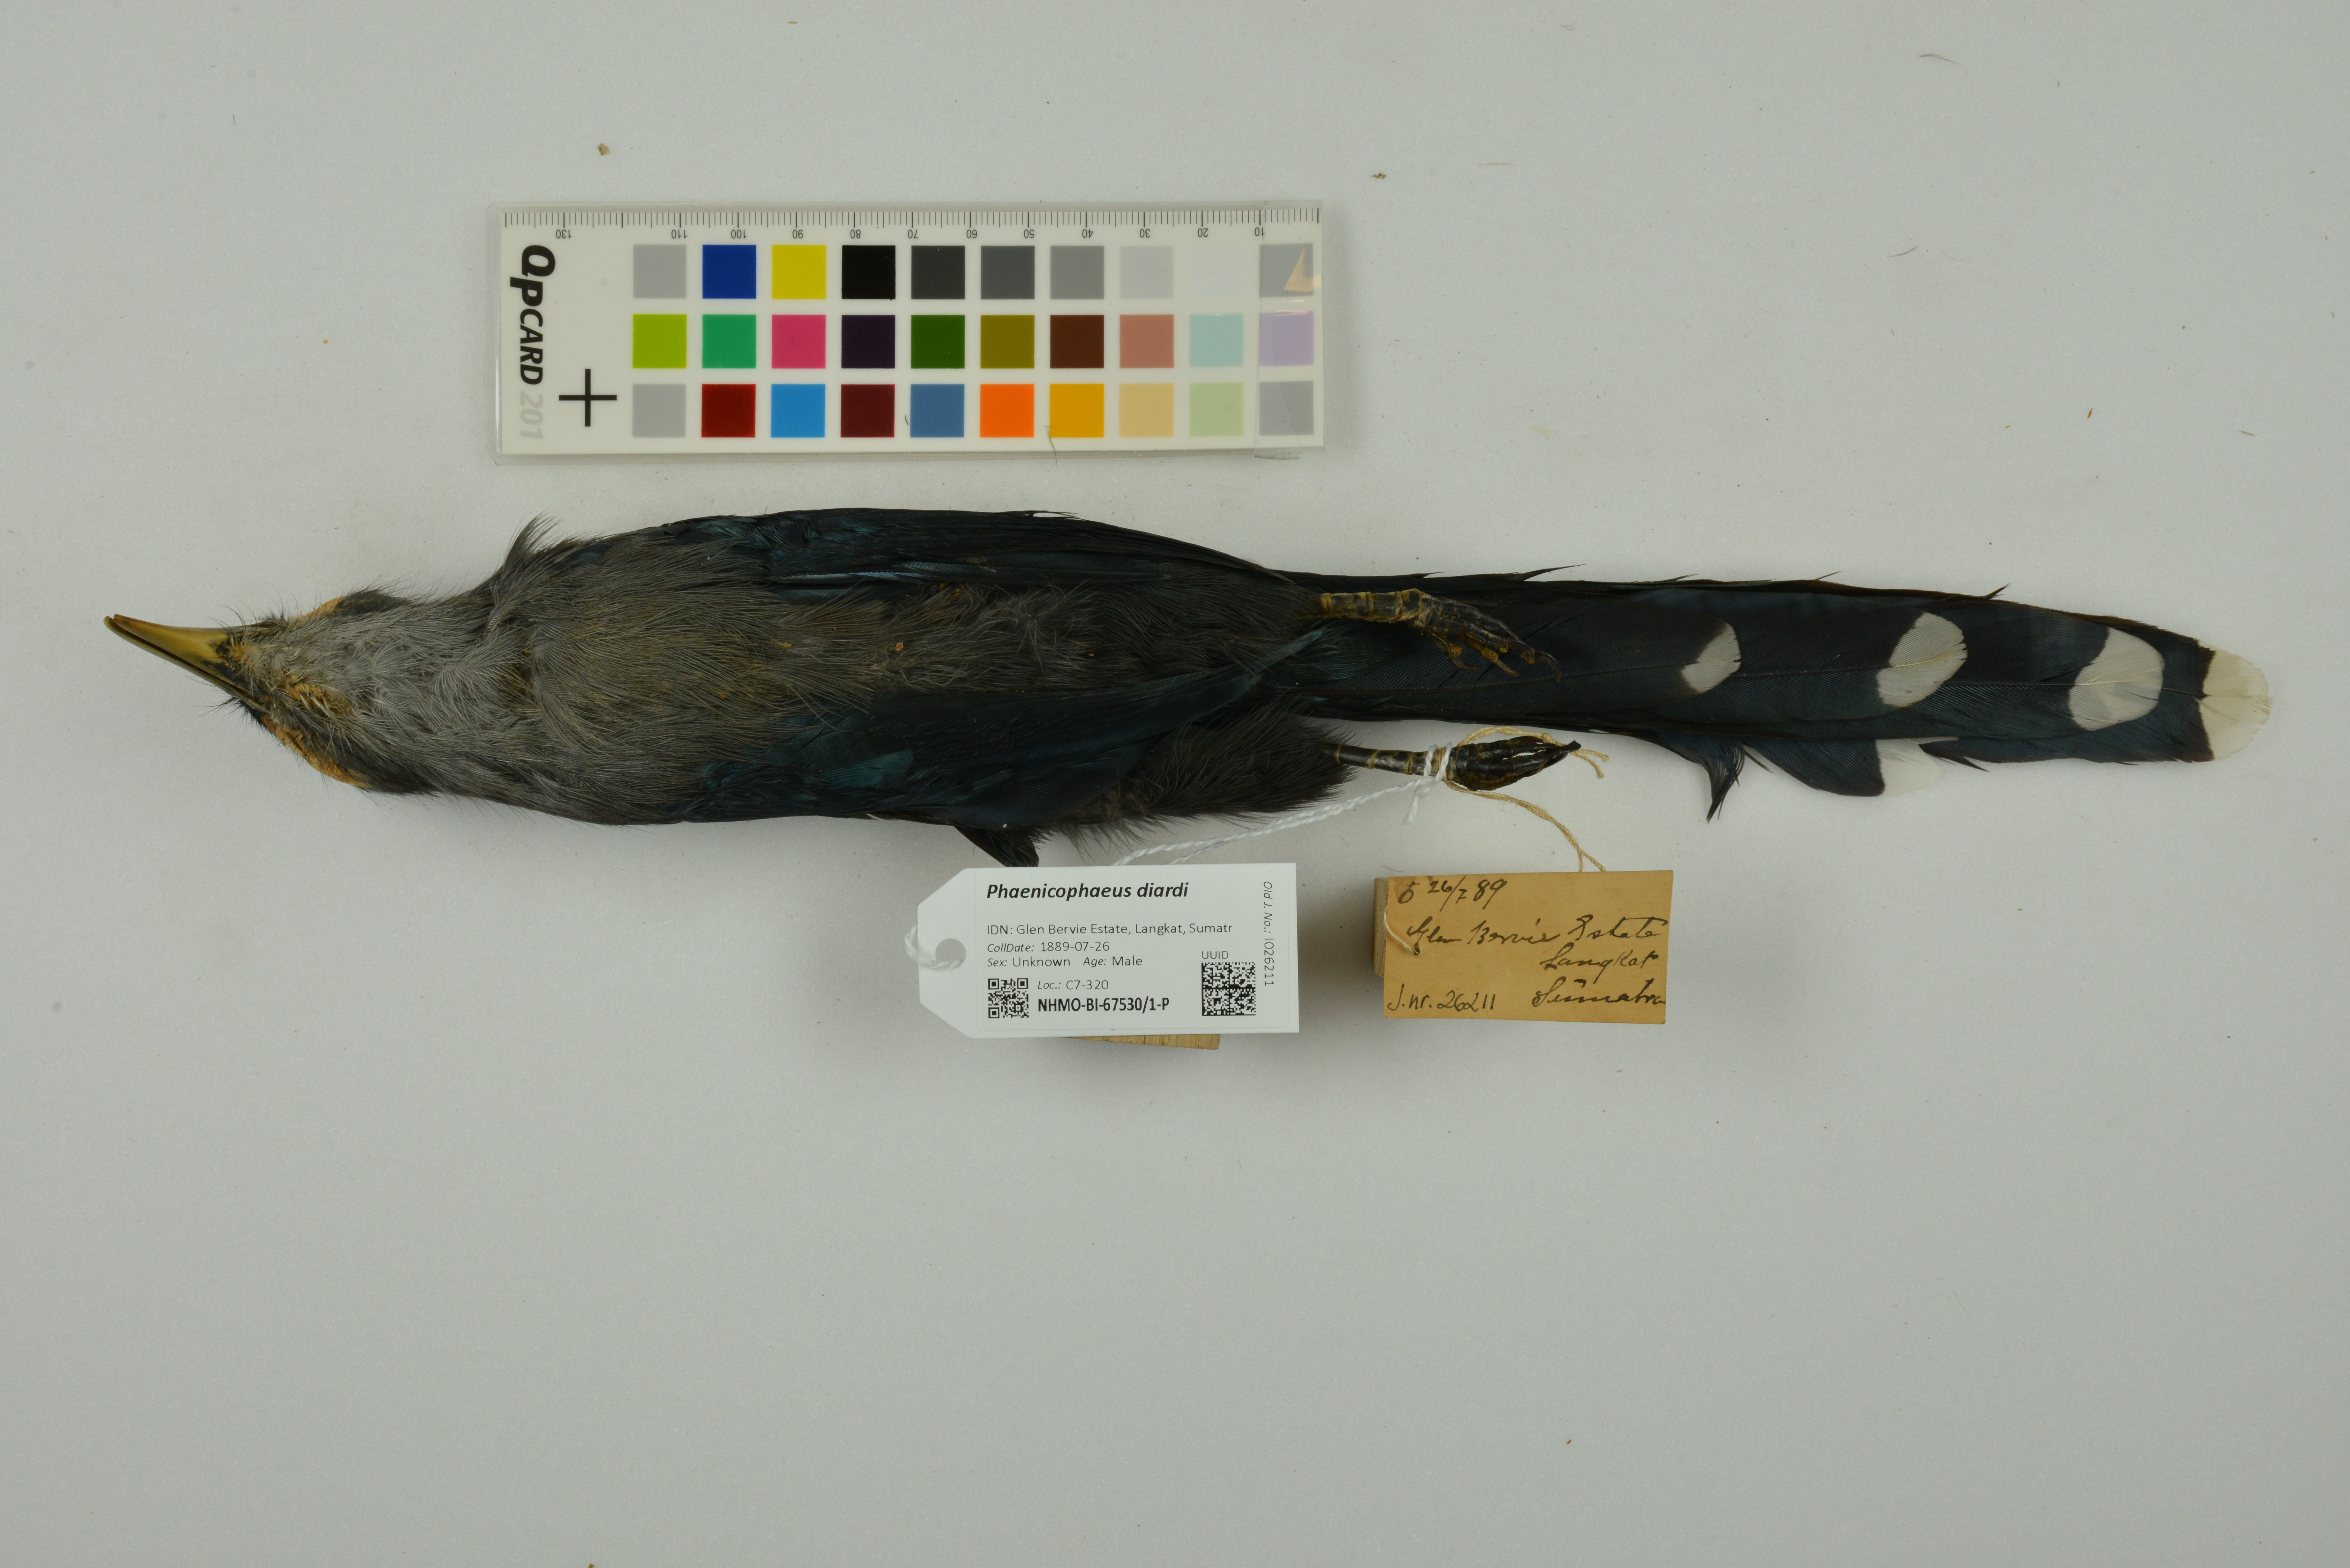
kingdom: Animalia
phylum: Chordata
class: Aves
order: Cuculiformes
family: Cuculidae
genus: Rhopodytes
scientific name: Rhopodytes diardi
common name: Lesser green-billed malcoha
